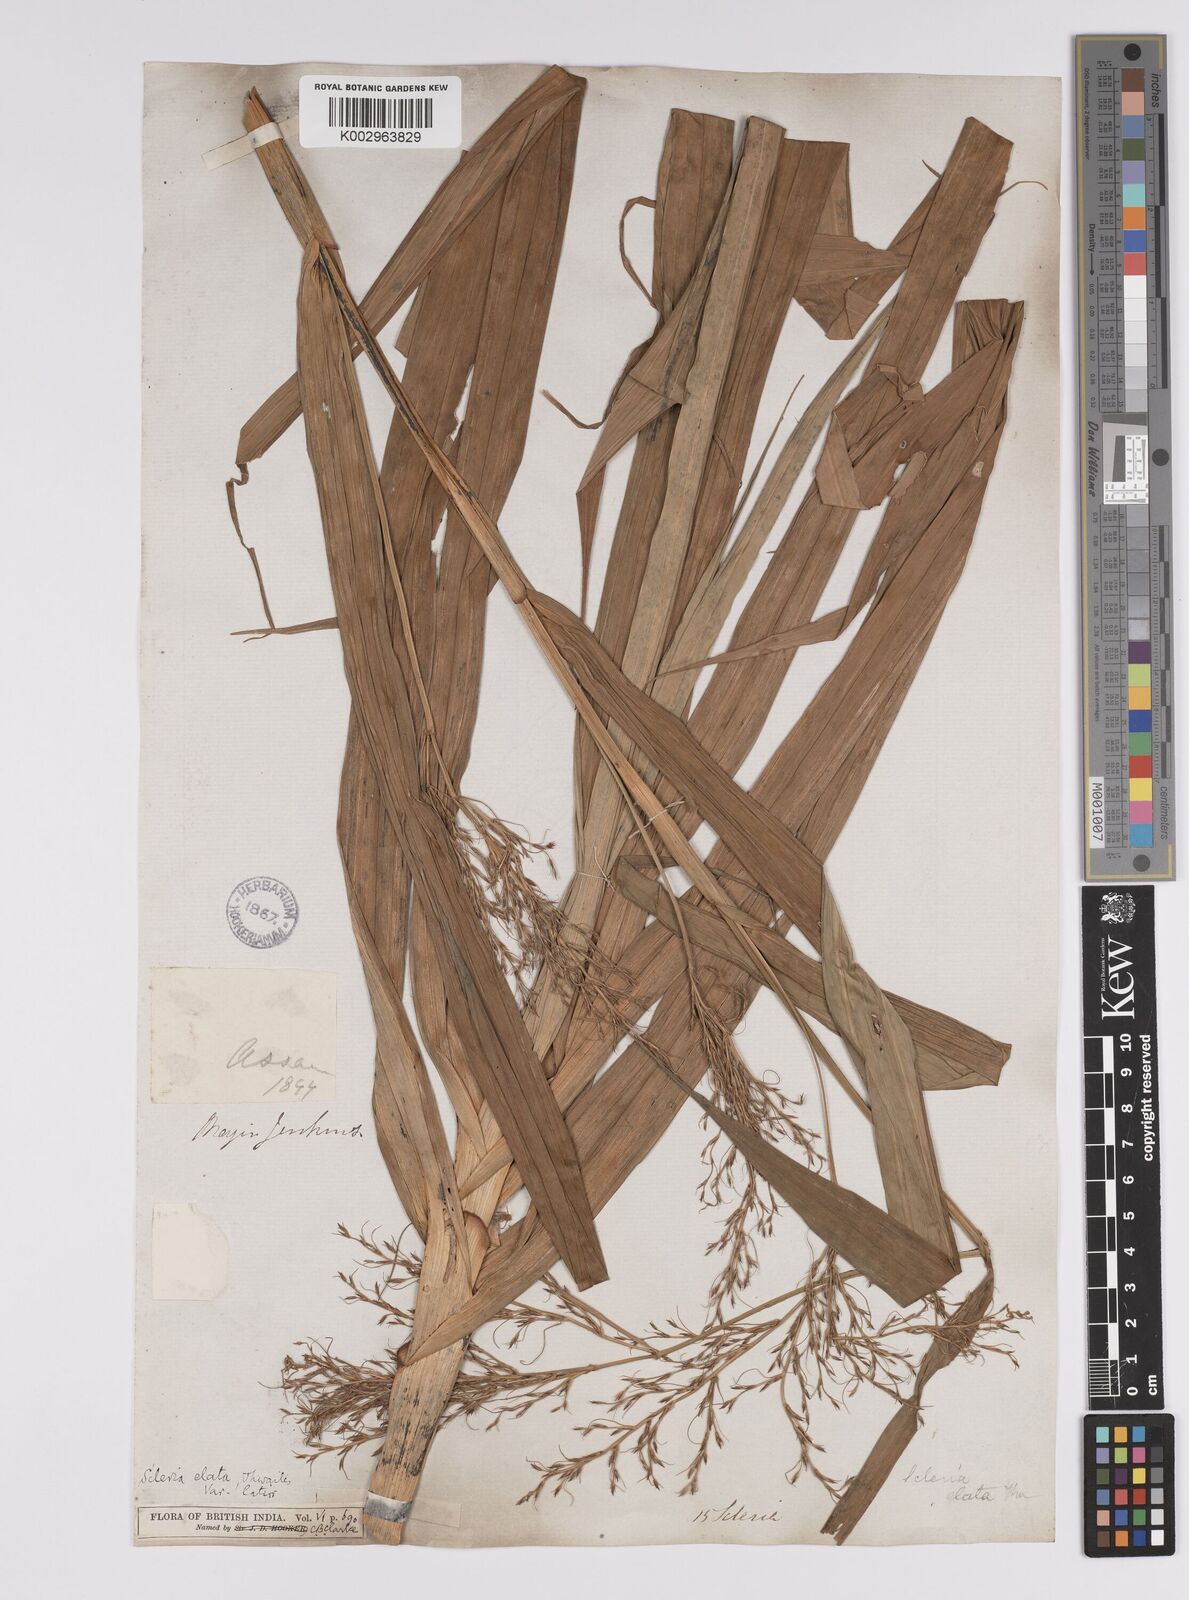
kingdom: Plantae
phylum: Tracheophyta
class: Liliopsida
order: Poales
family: Cyperaceae
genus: Scleria
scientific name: Scleria terrestris
